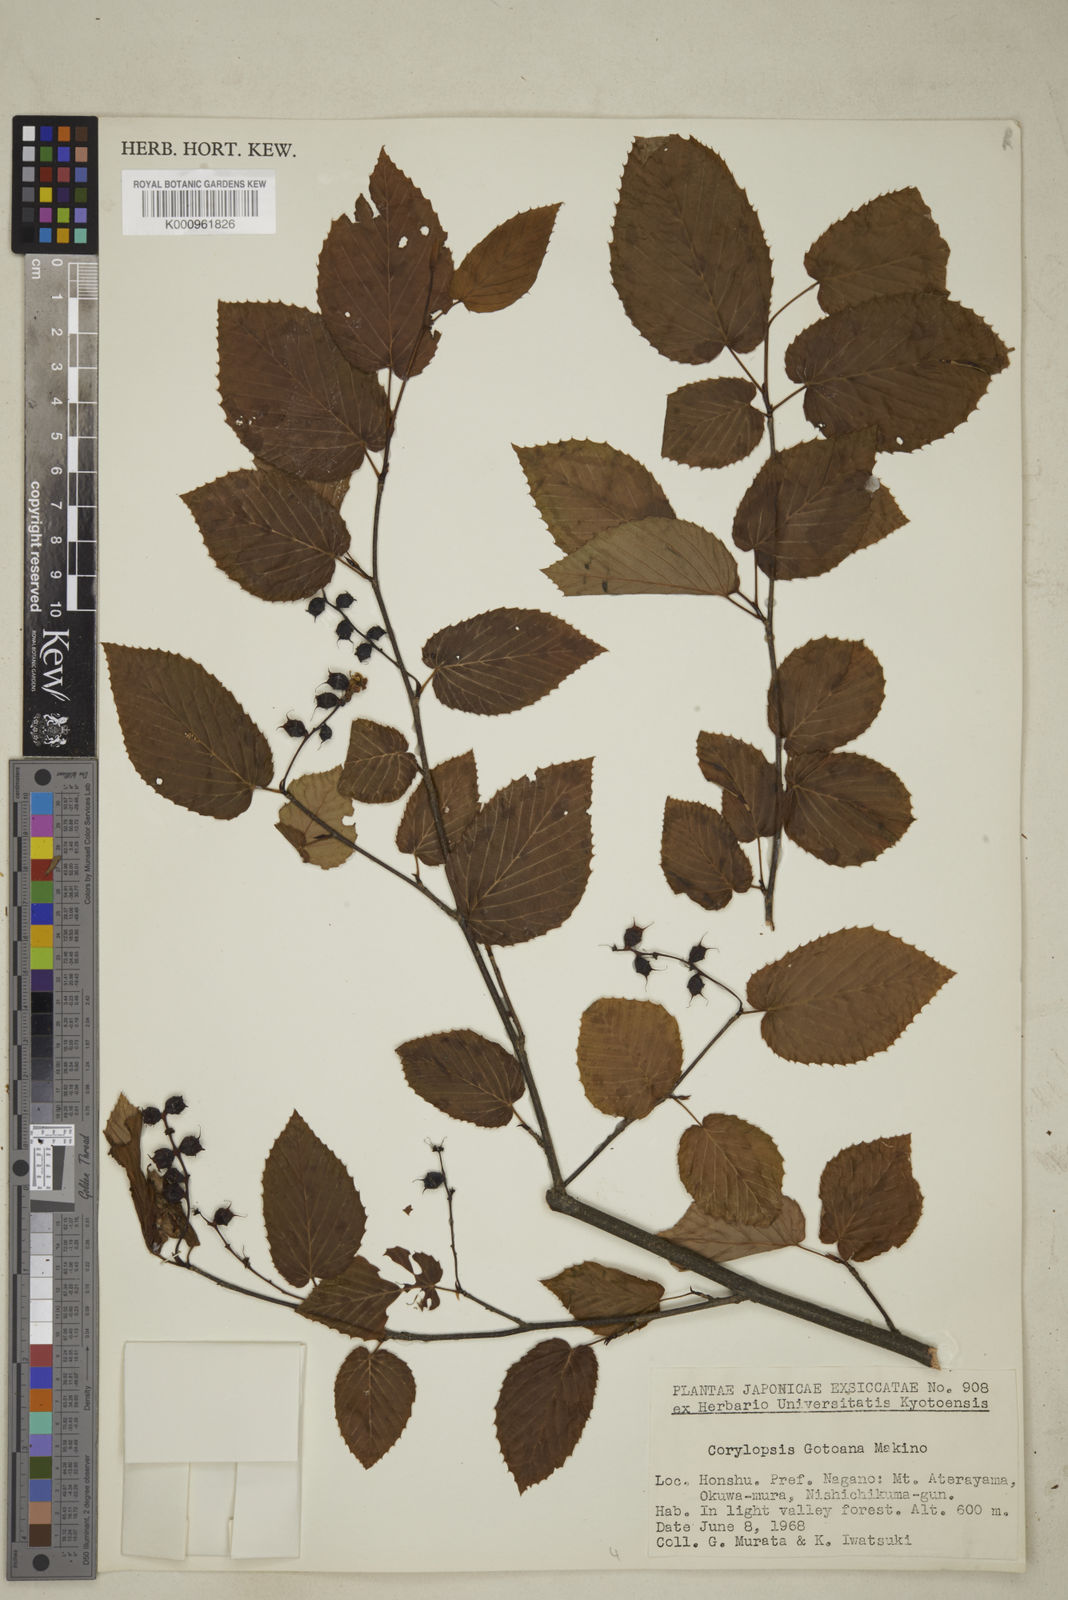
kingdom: Plantae
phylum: Tracheophyta
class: Magnoliopsida
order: Saxifragales
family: Hamamelidaceae
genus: Corylopsis
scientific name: Corylopsis glabrescens
